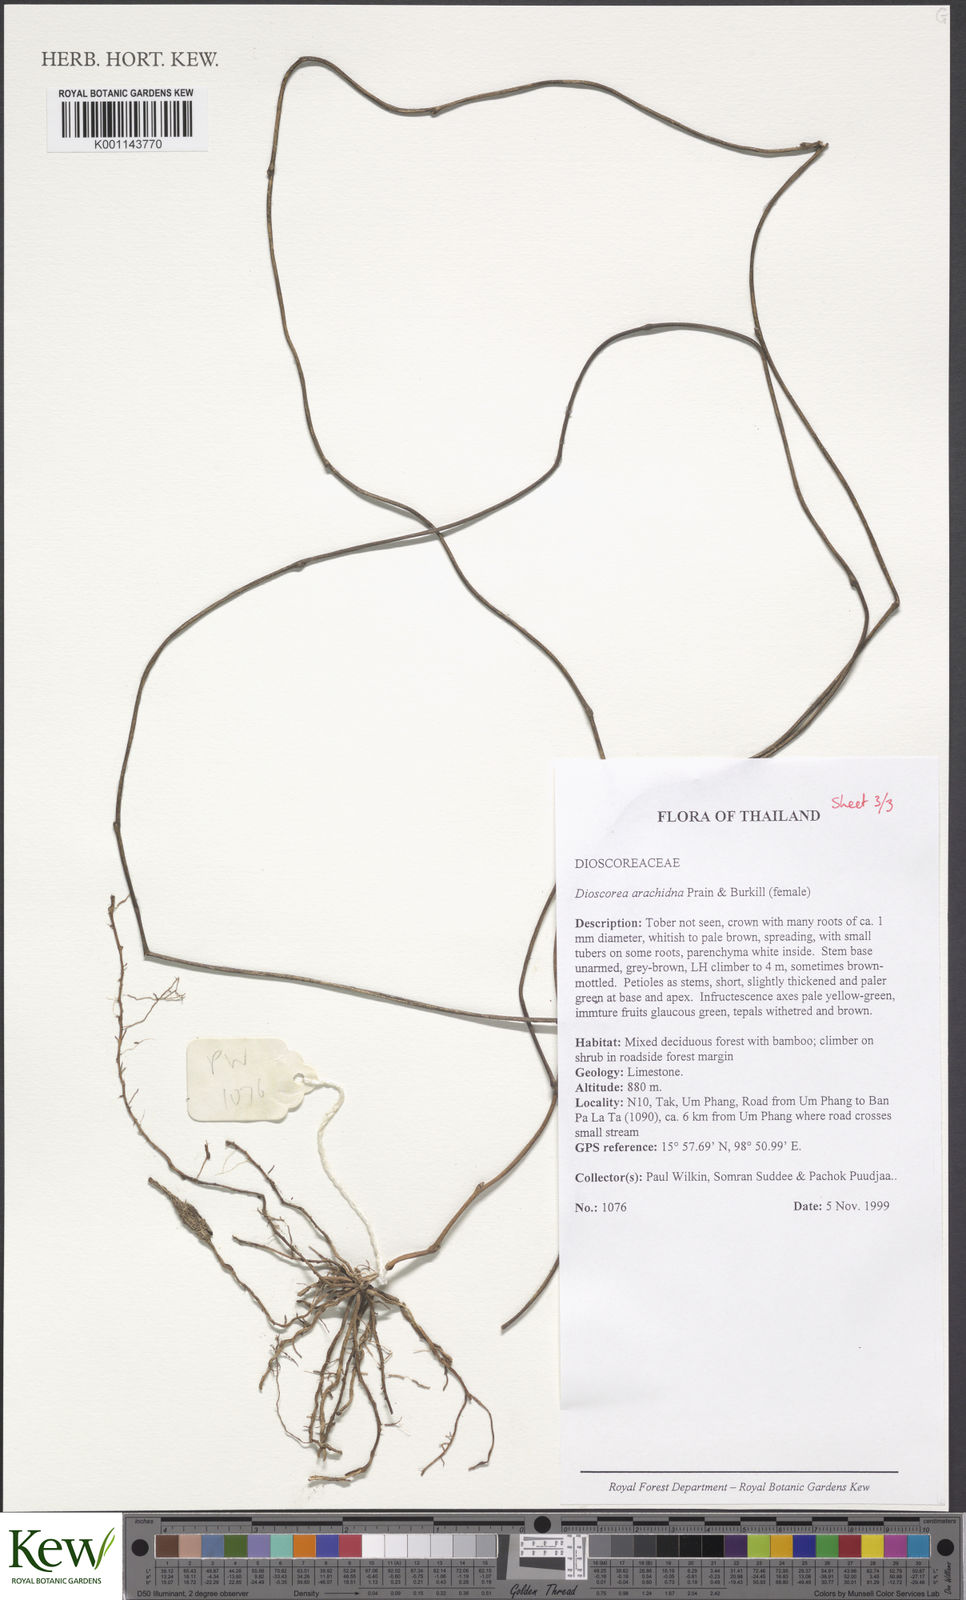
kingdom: Plantae
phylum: Tracheophyta
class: Liliopsida
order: Dioscoreales
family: Dioscoreaceae
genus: Dioscorea
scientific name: Dioscorea arachidna
